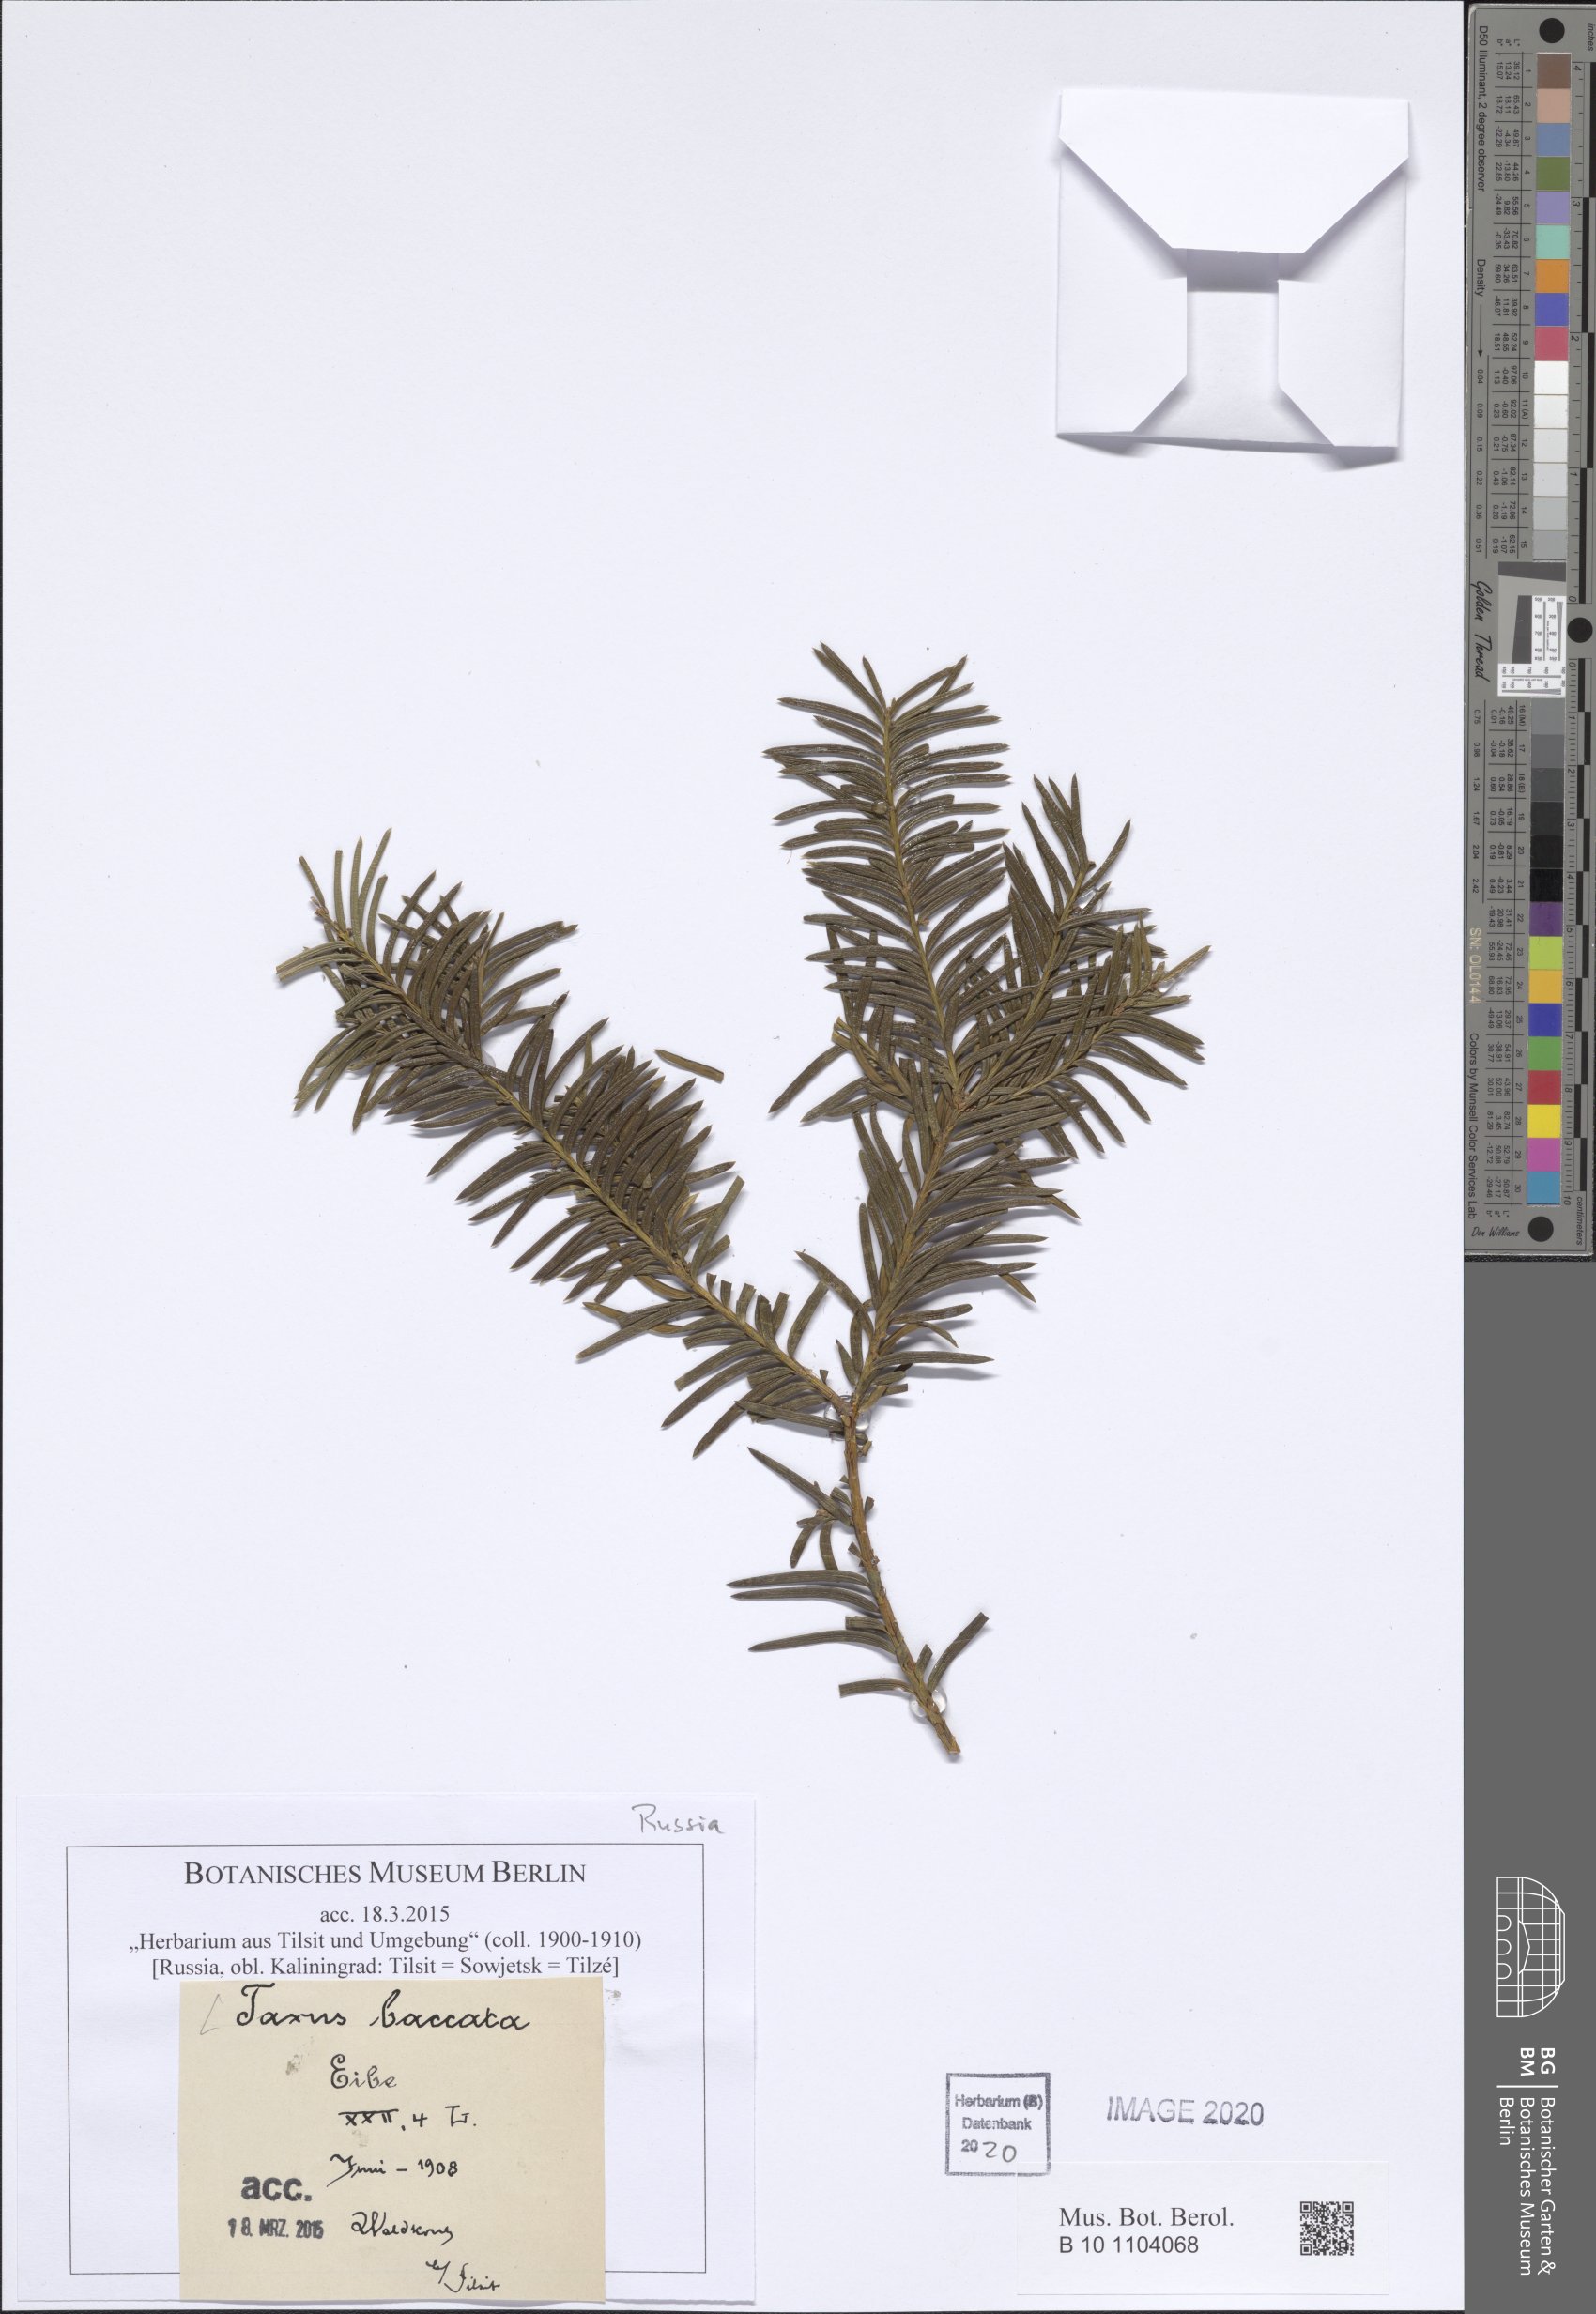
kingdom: Plantae
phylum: Tracheophyta
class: Pinopsida
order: Pinales
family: Taxaceae
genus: Taxus
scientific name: Taxus baccata
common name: Yew
